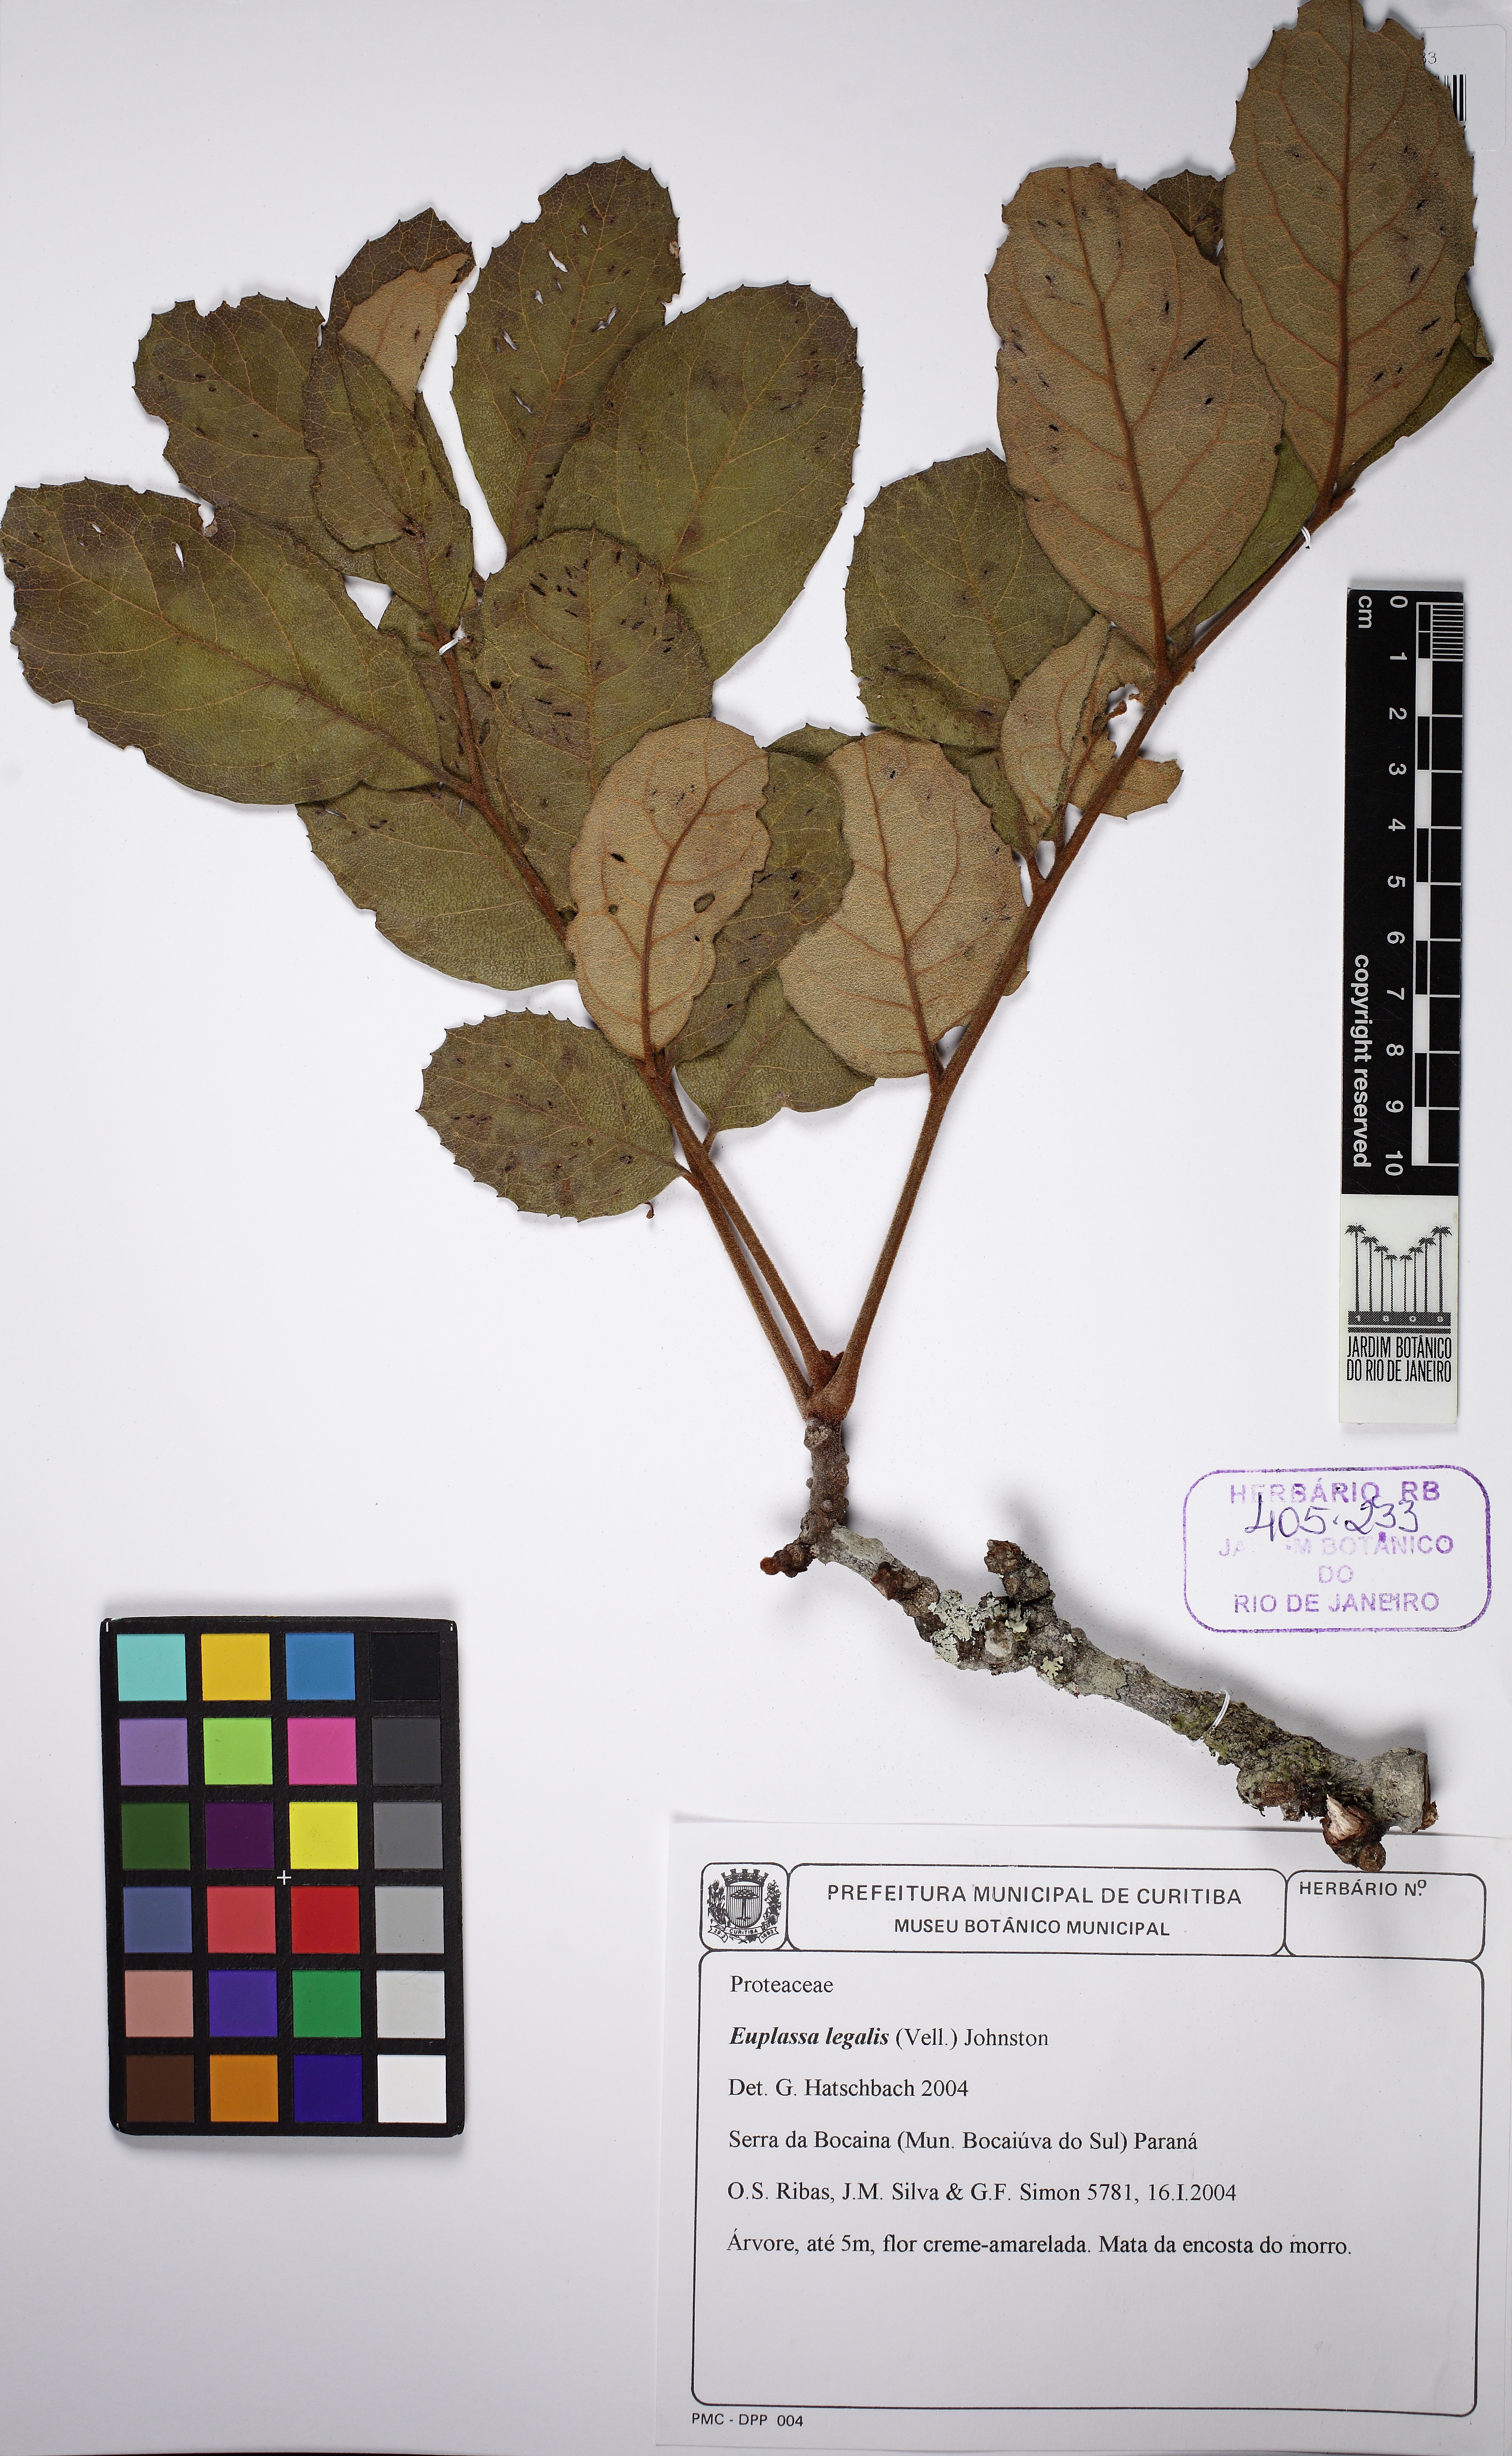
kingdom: Plantae
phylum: Tracheophyta
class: Magnoliopsida
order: Proteales
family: Proteaceae
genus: Euplassa
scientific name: Euplassa legalis
